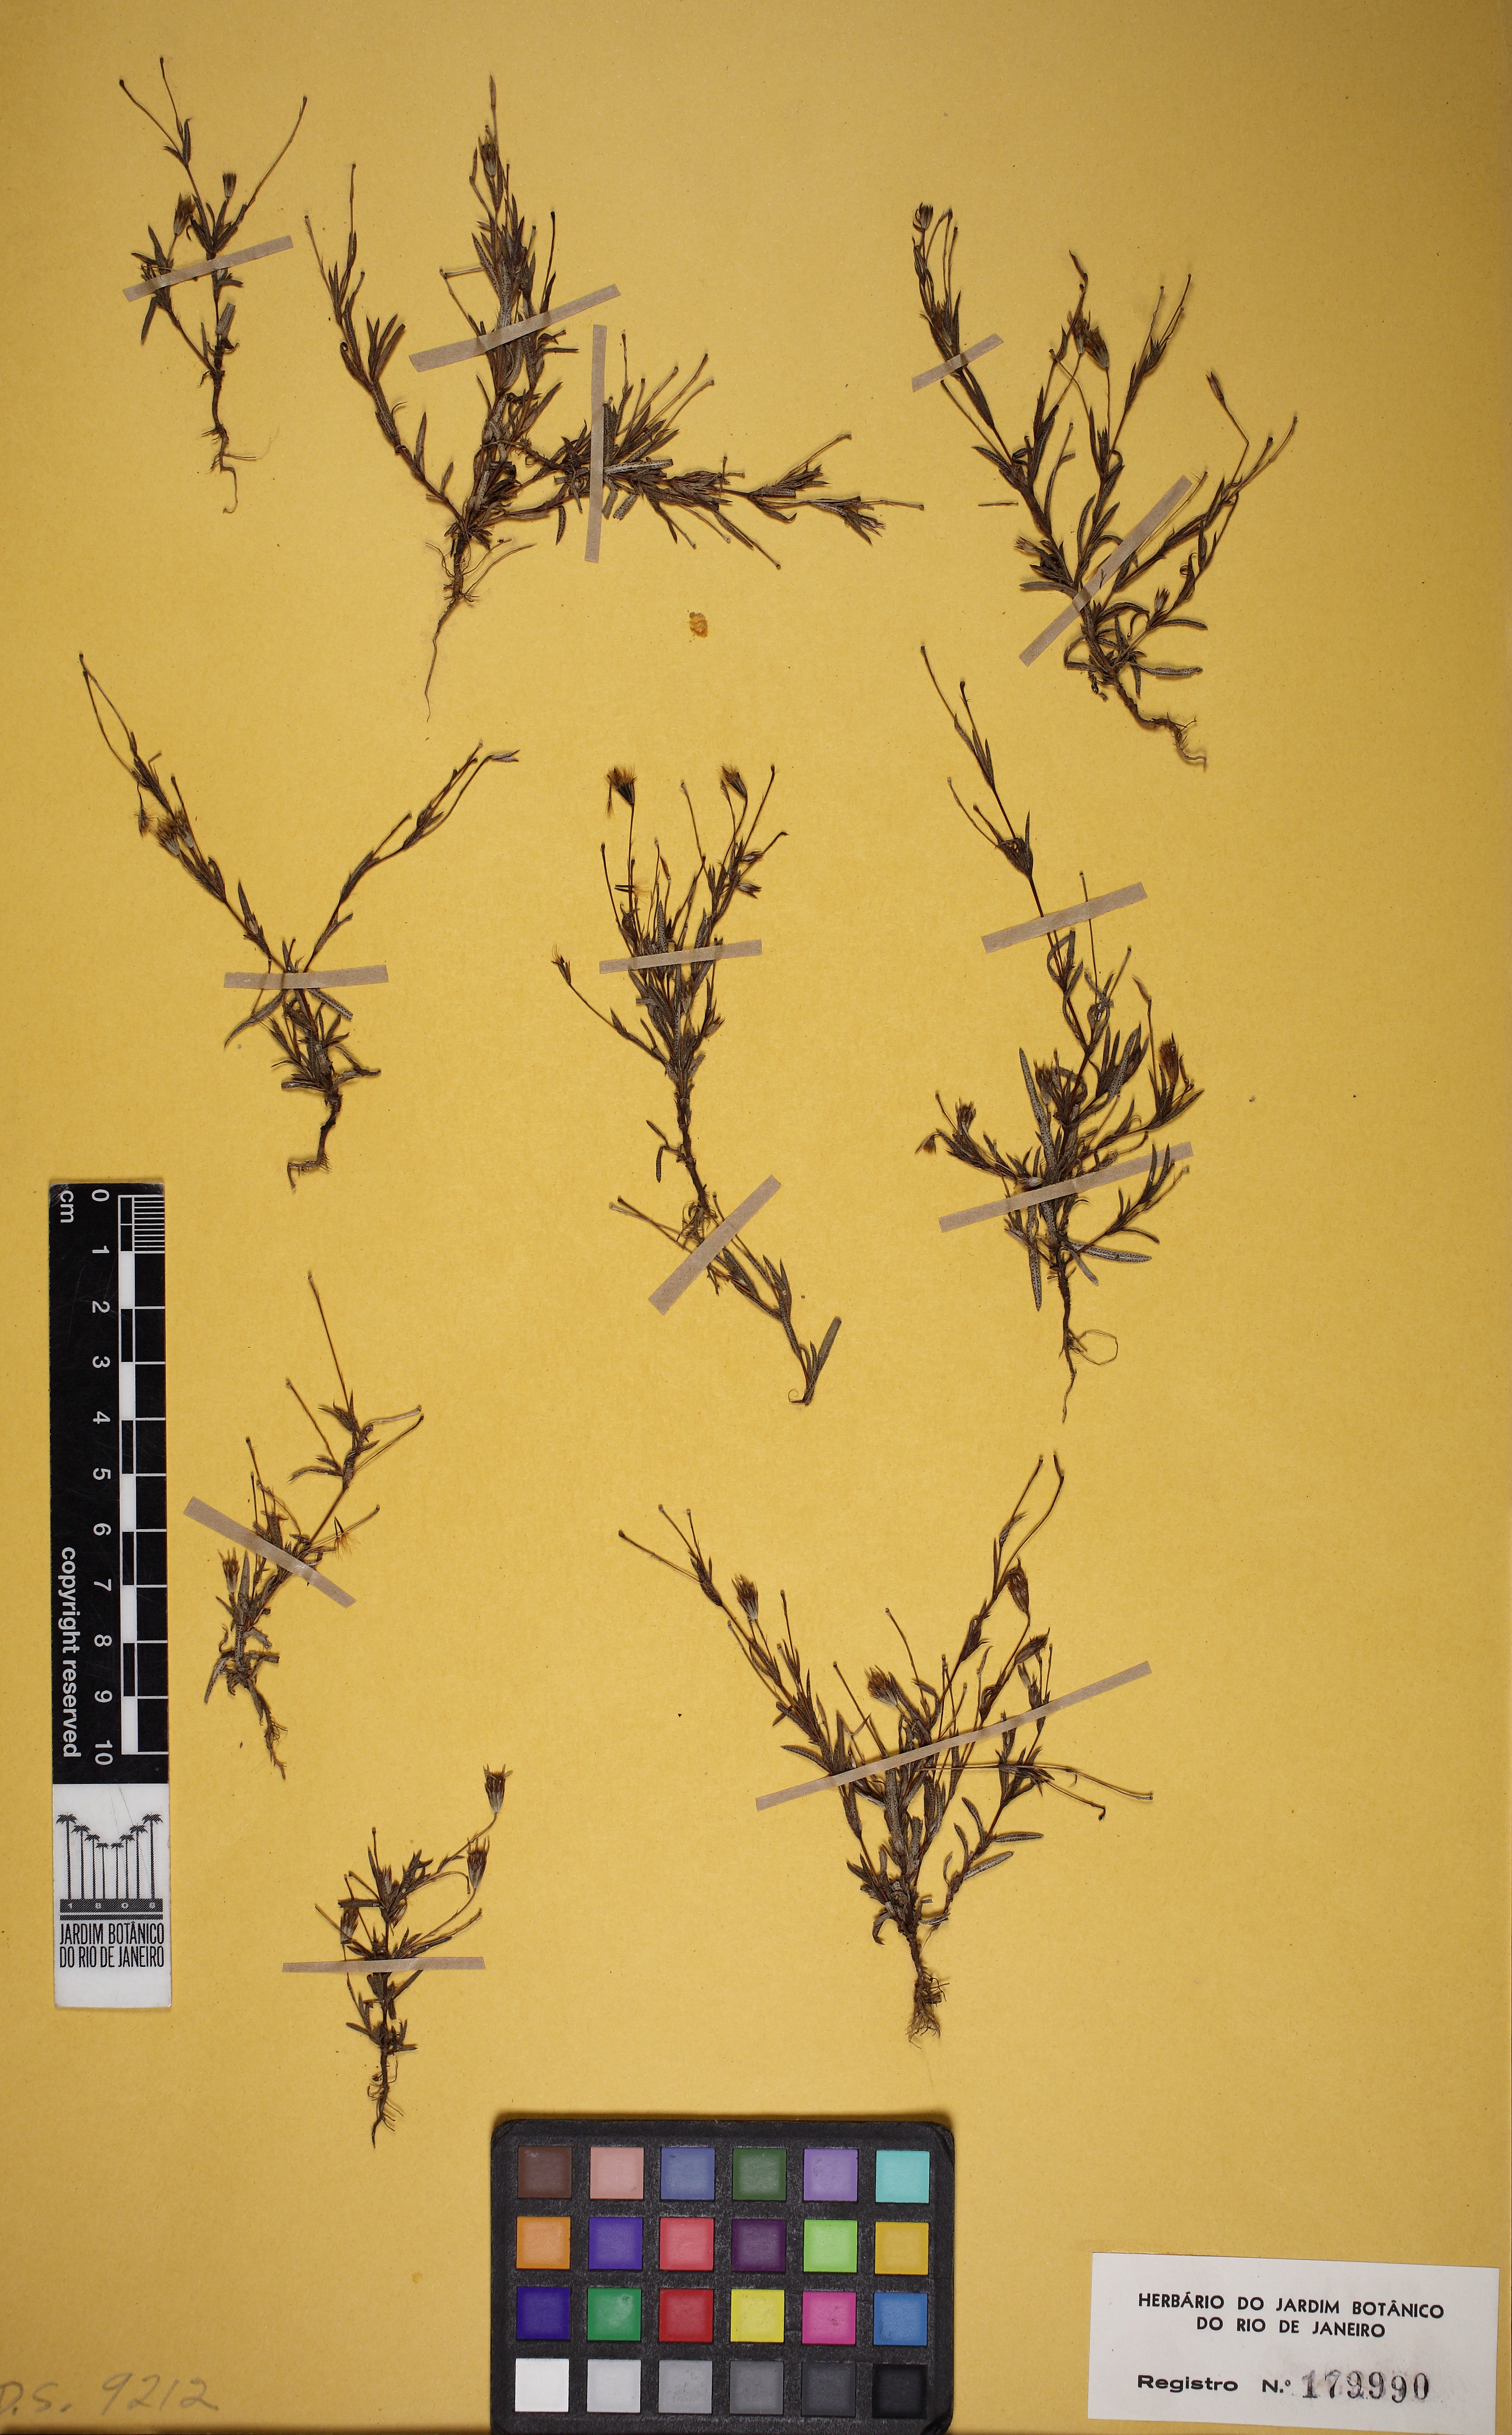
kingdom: Plantae
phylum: Tracheophyta
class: Magnoliopsida
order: Asterales
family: Asteraceae
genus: Pectis
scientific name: Pectis
